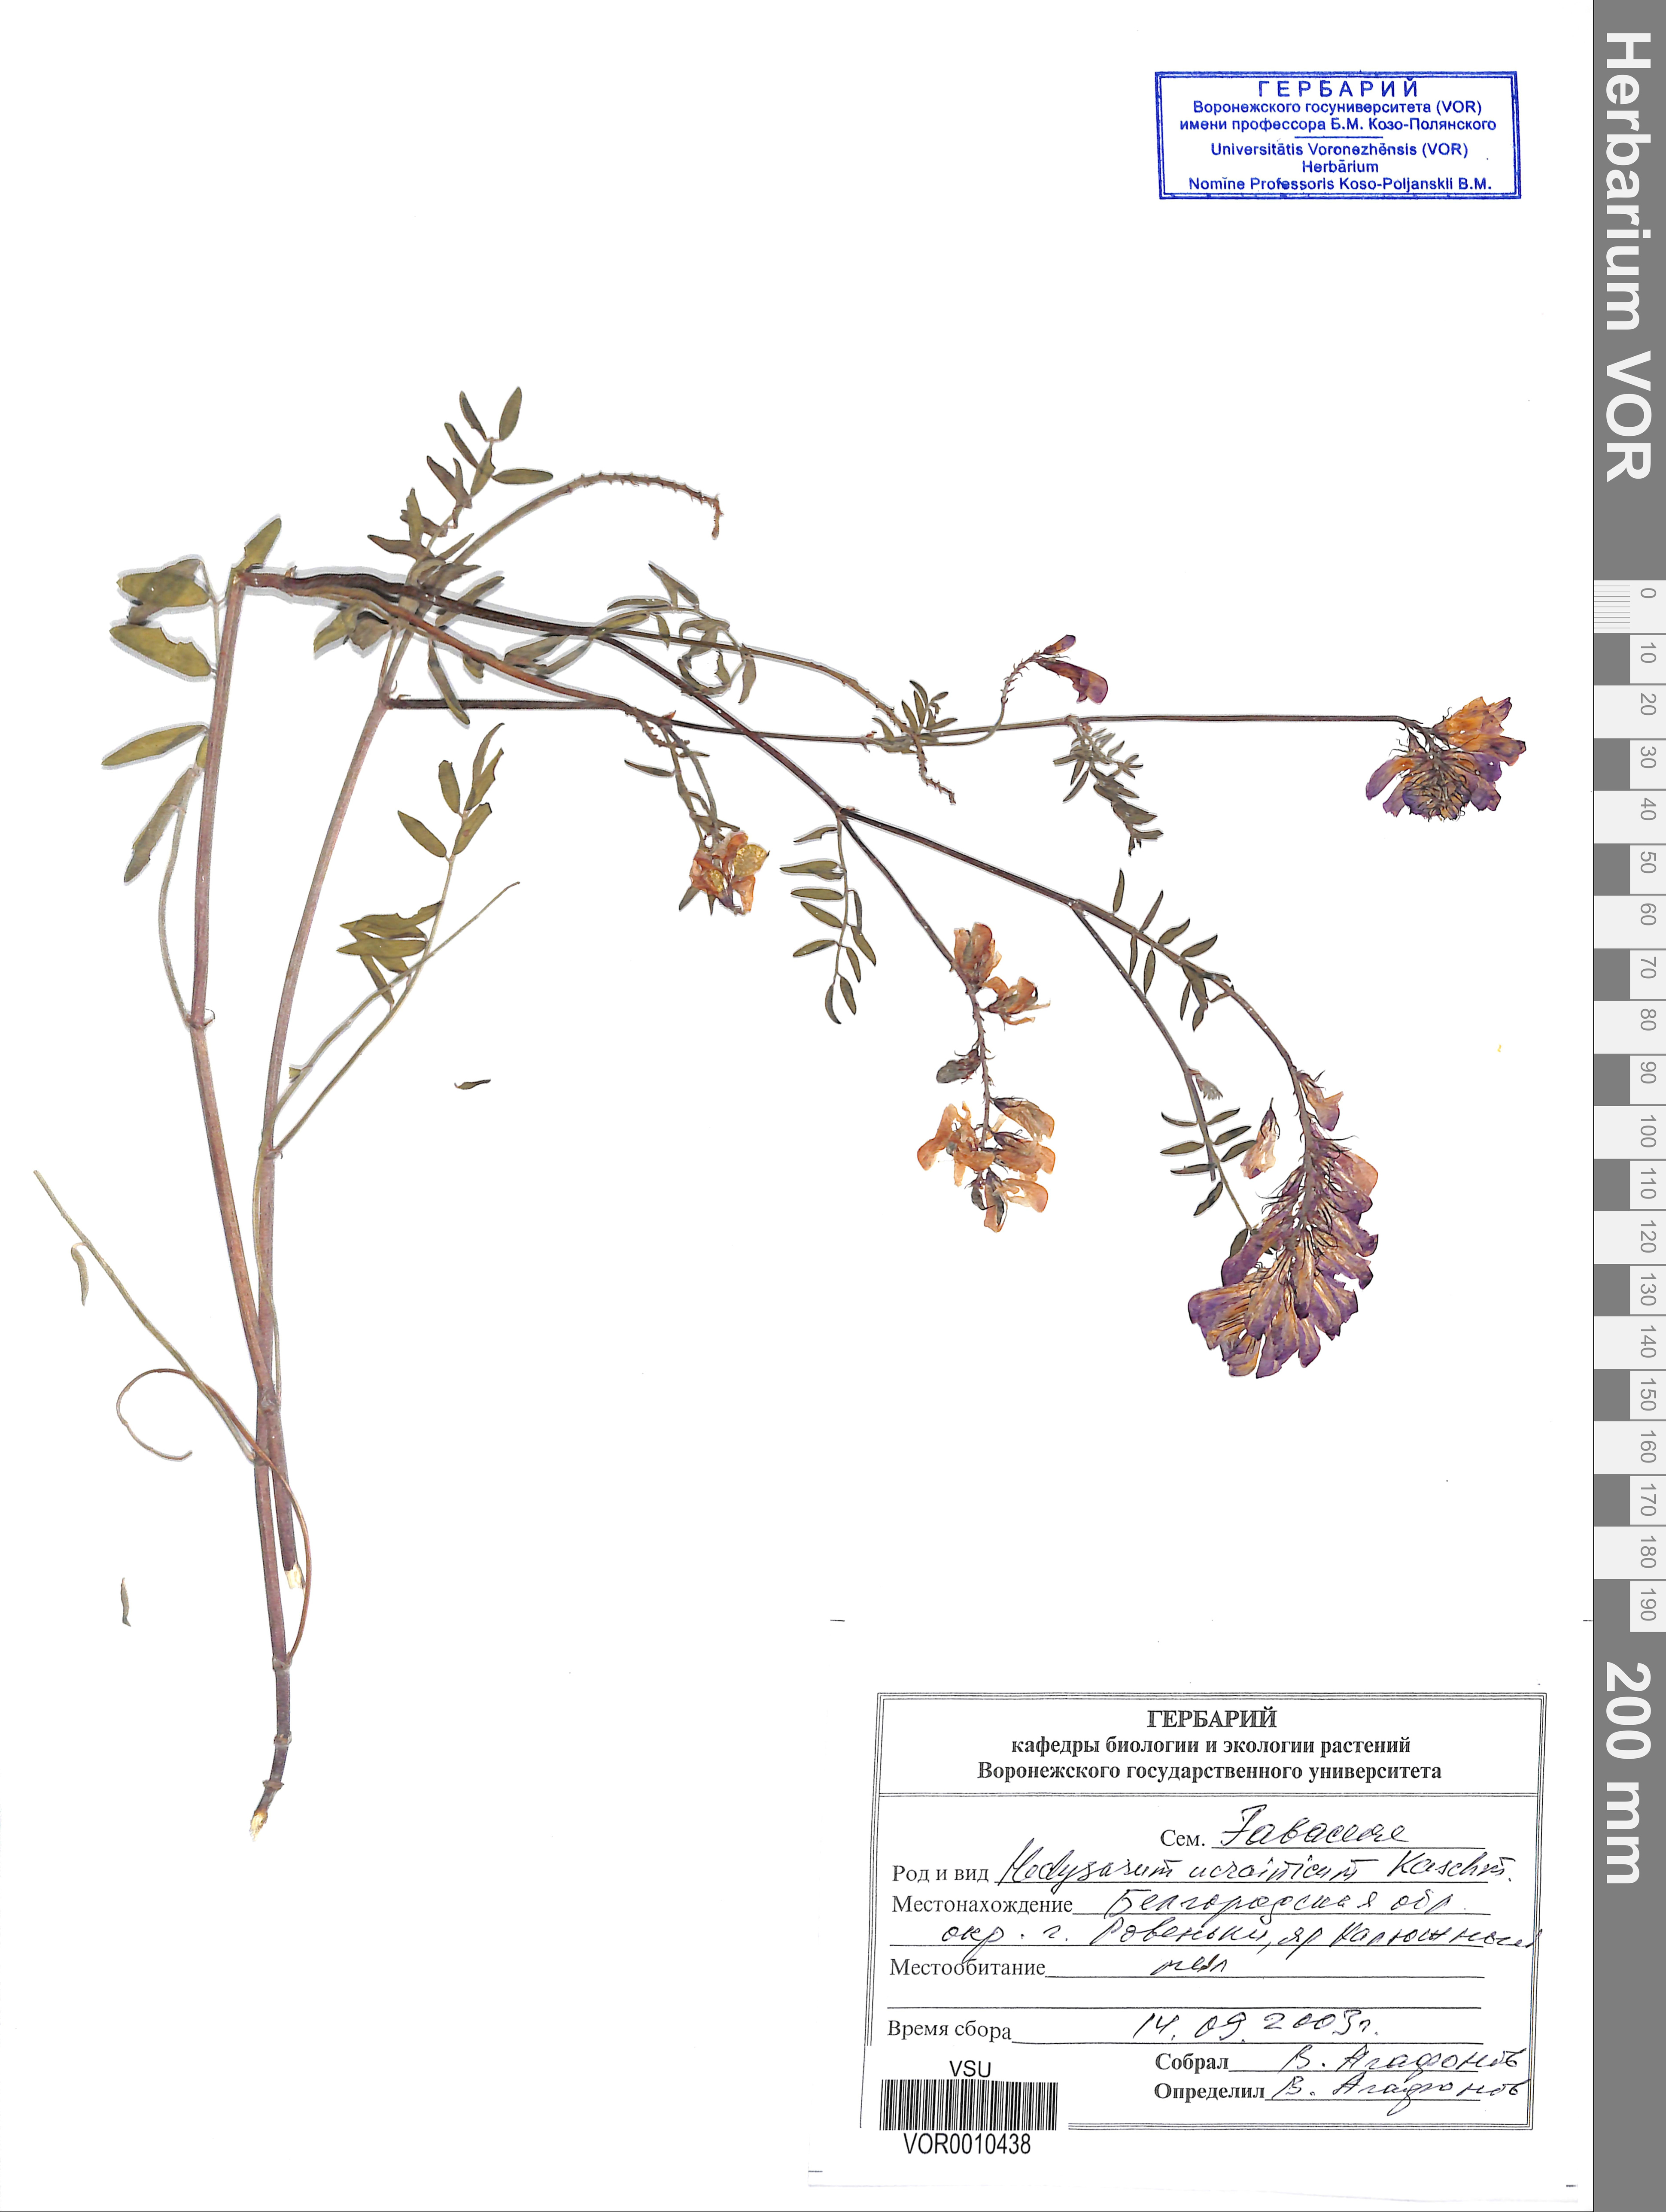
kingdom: Plantae
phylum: Tracheophyta
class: Magnoliopsida
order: Fabales
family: Fabaceae
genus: Hedysarum
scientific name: Hedysarum ucrainicum
